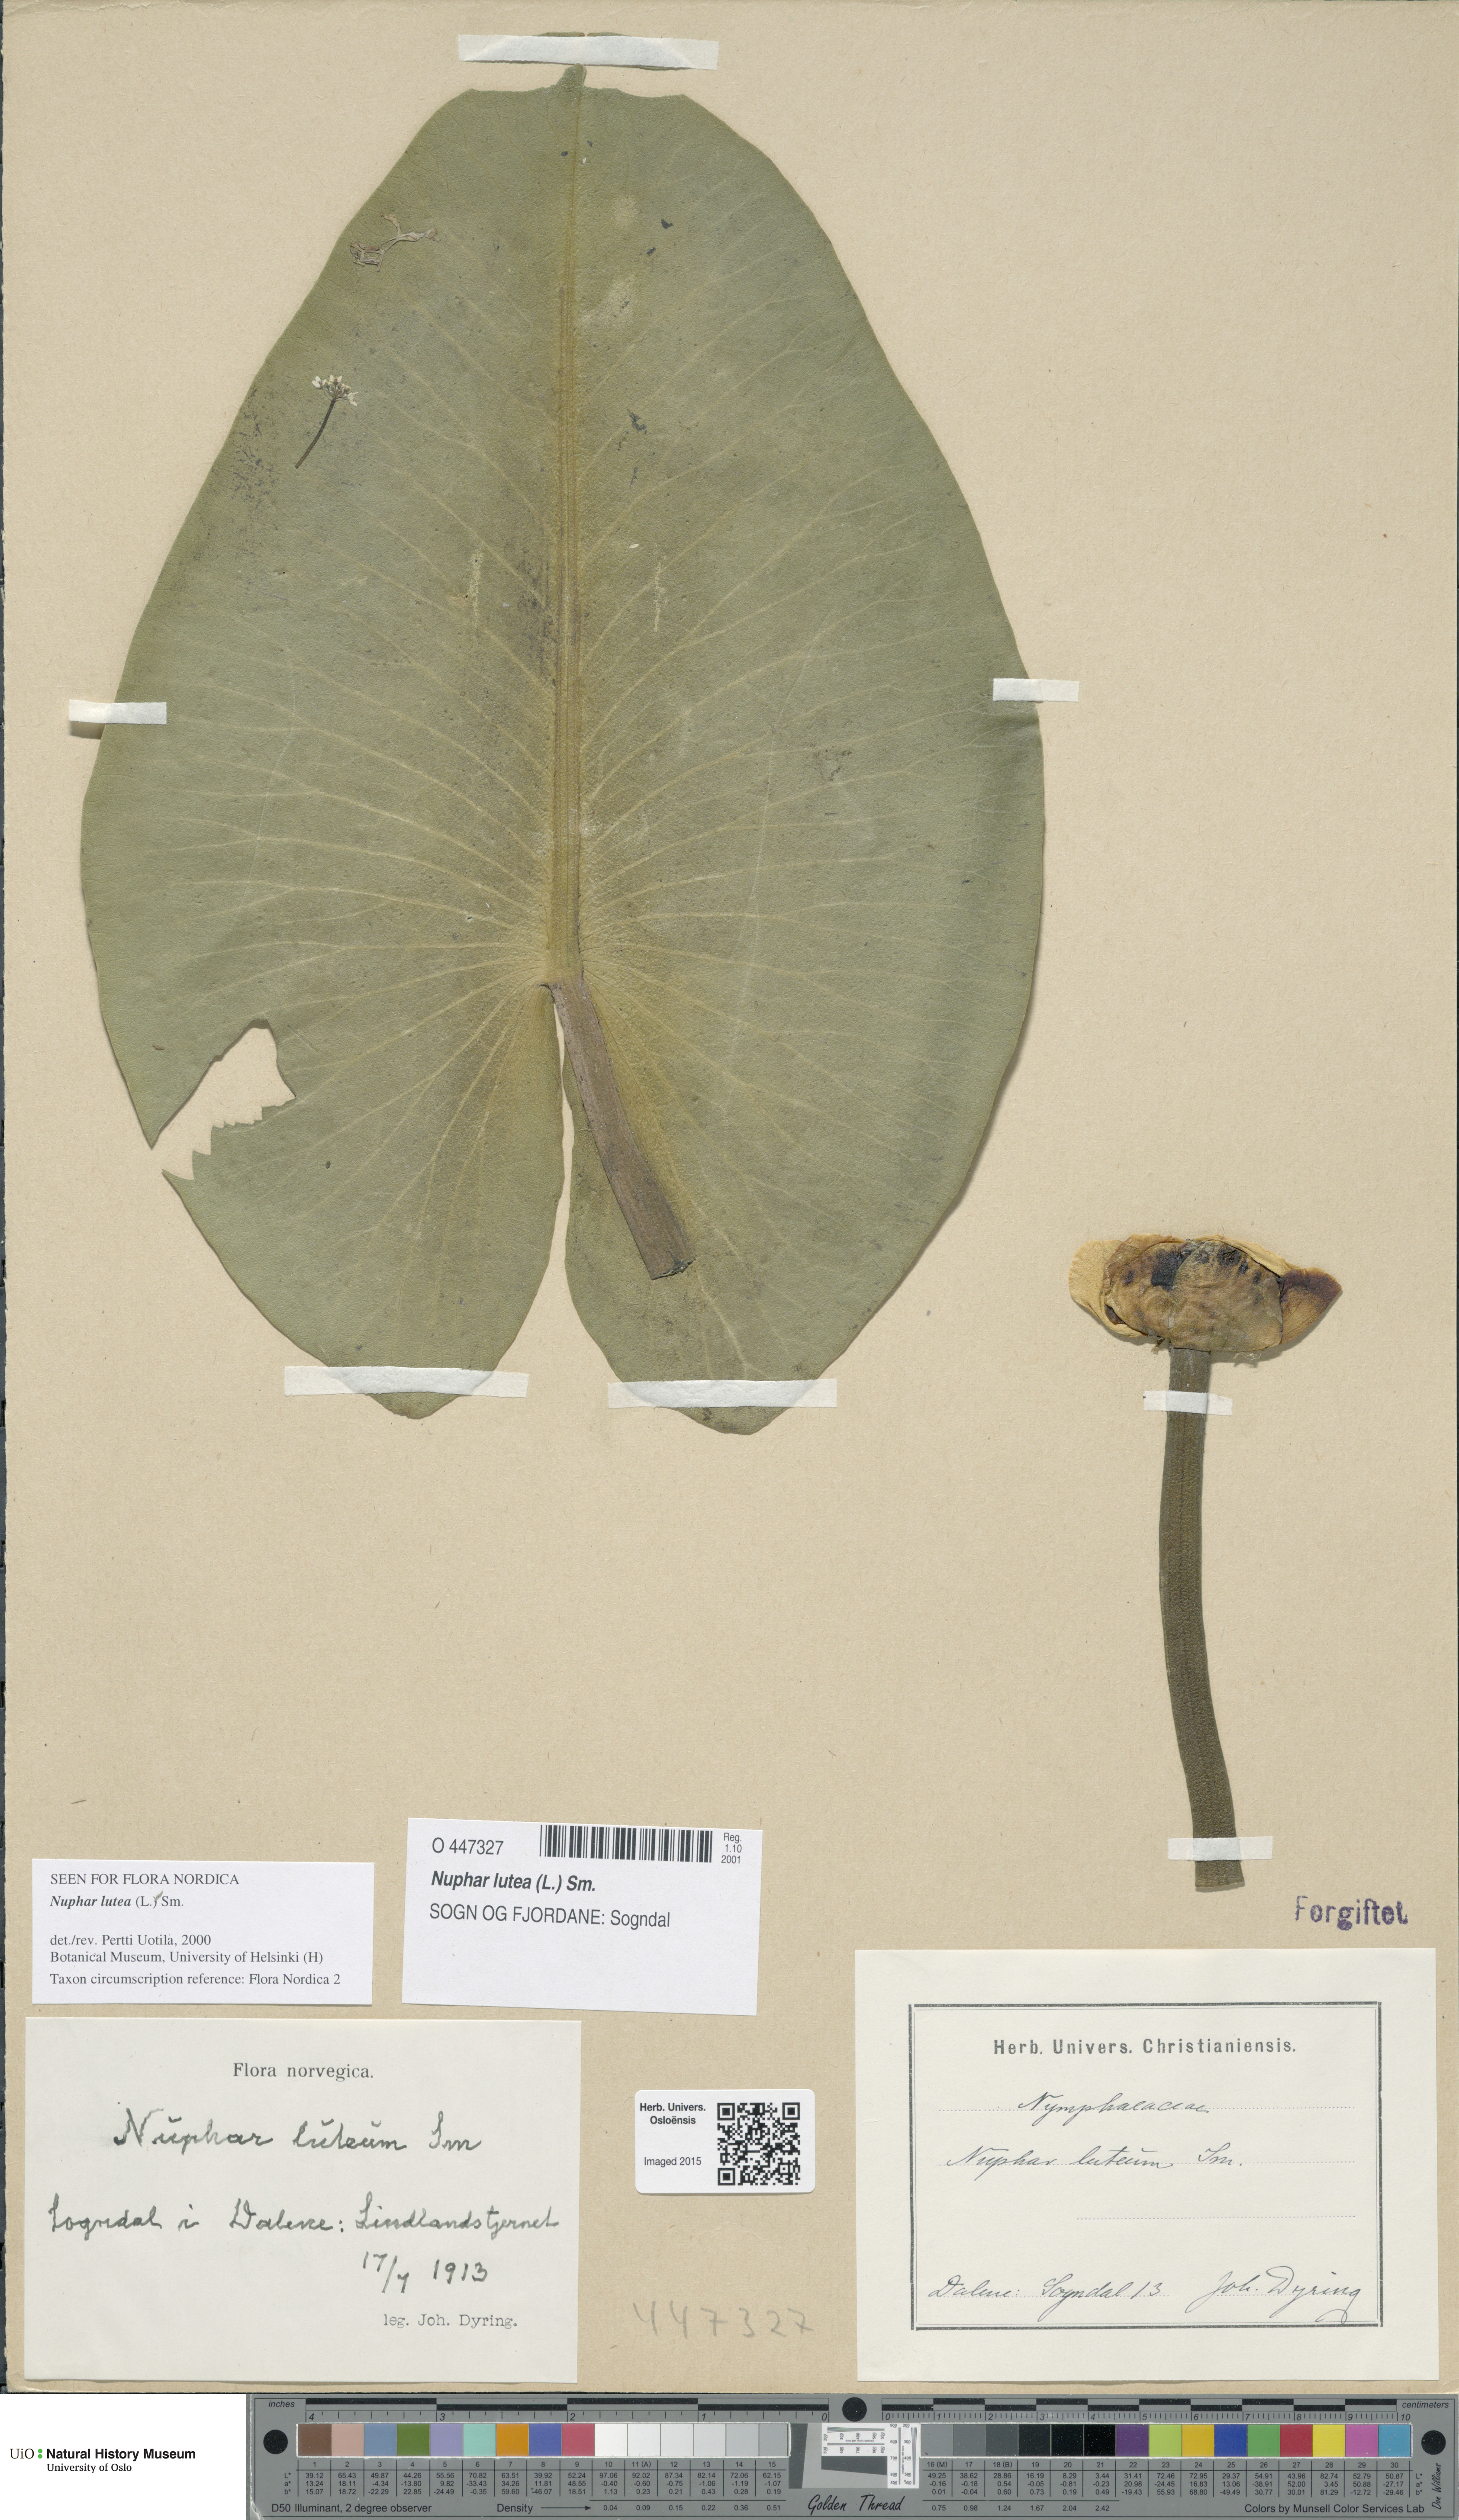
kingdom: Plantae
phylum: Tracheophyta
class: Magnoliopsida
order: Nymphaeales
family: Nymphaeaceae
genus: Nuphar
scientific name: Nuphar lutea
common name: Yellow water-lily
